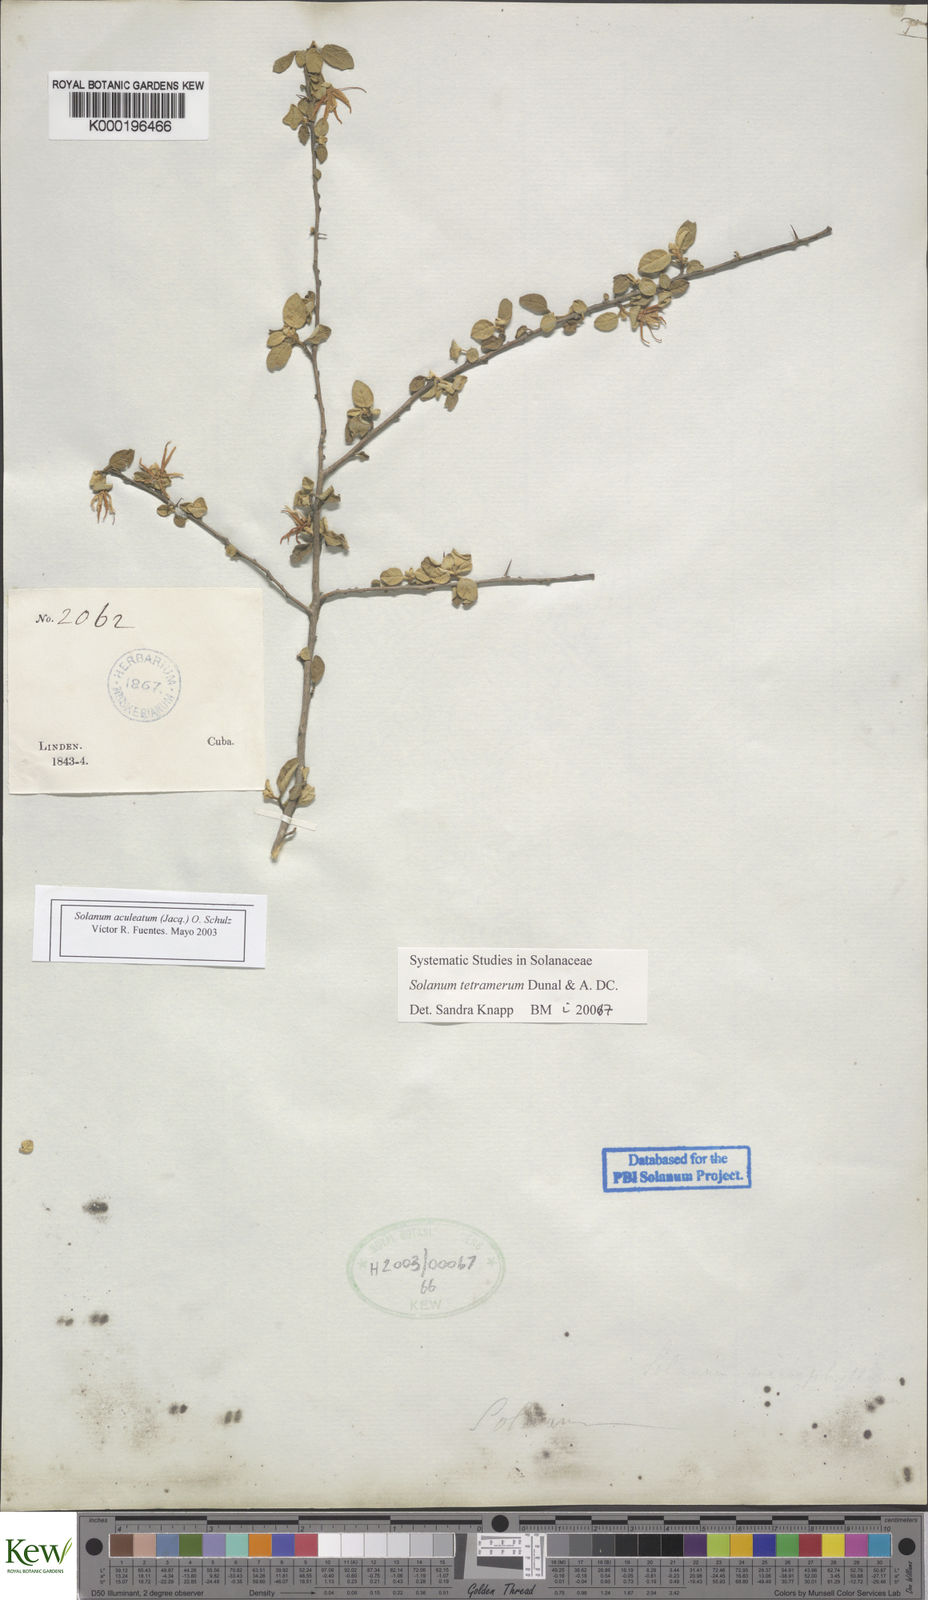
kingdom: Plantae
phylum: Tracheophyta
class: Magnoliopsida
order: Solanales
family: Solanaceae
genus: Solanum
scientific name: Solanum tetramerum
